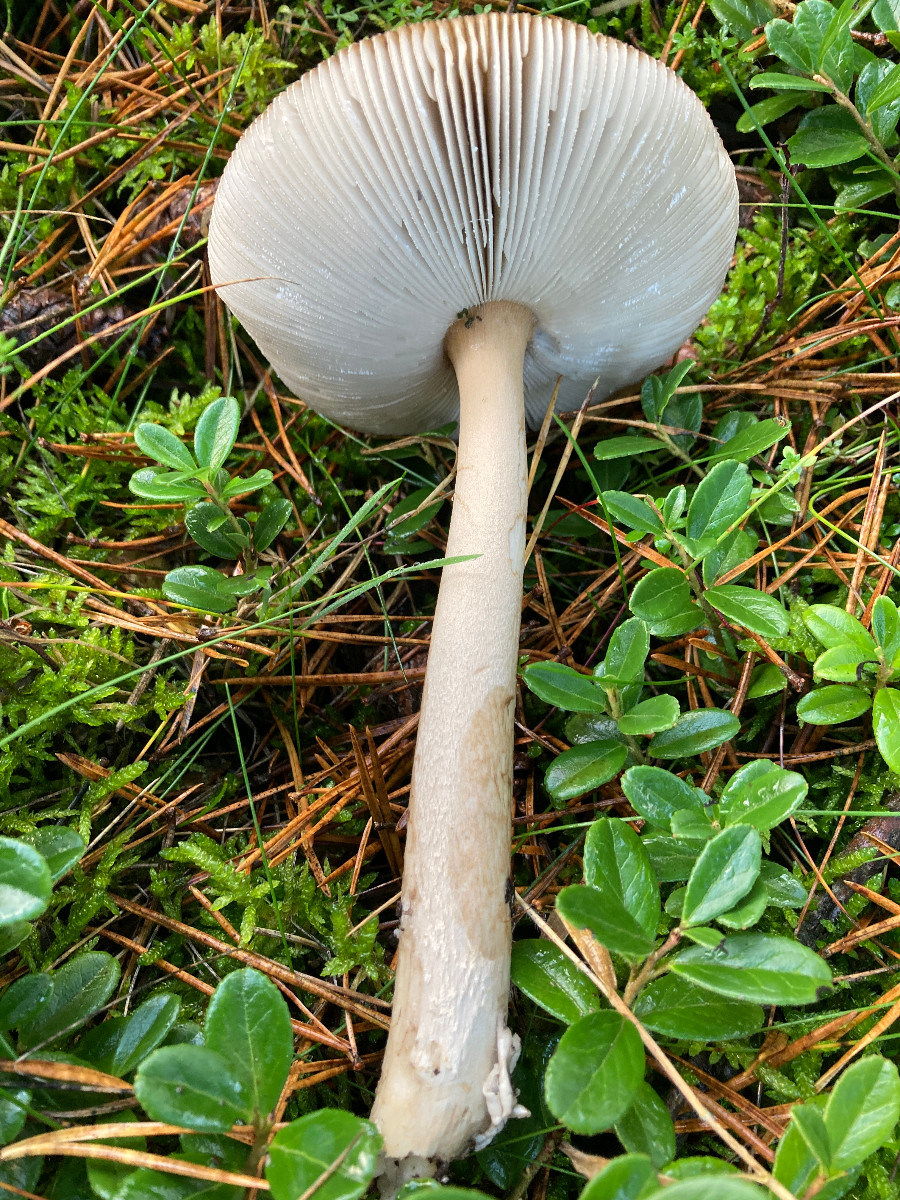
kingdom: Fungi
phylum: Basidiomycota
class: Agaricomycetes
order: Agaricales
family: Amanitaceae
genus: Amanita
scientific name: Amanita submembranacea
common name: gråspættet kam-fluesvamp
